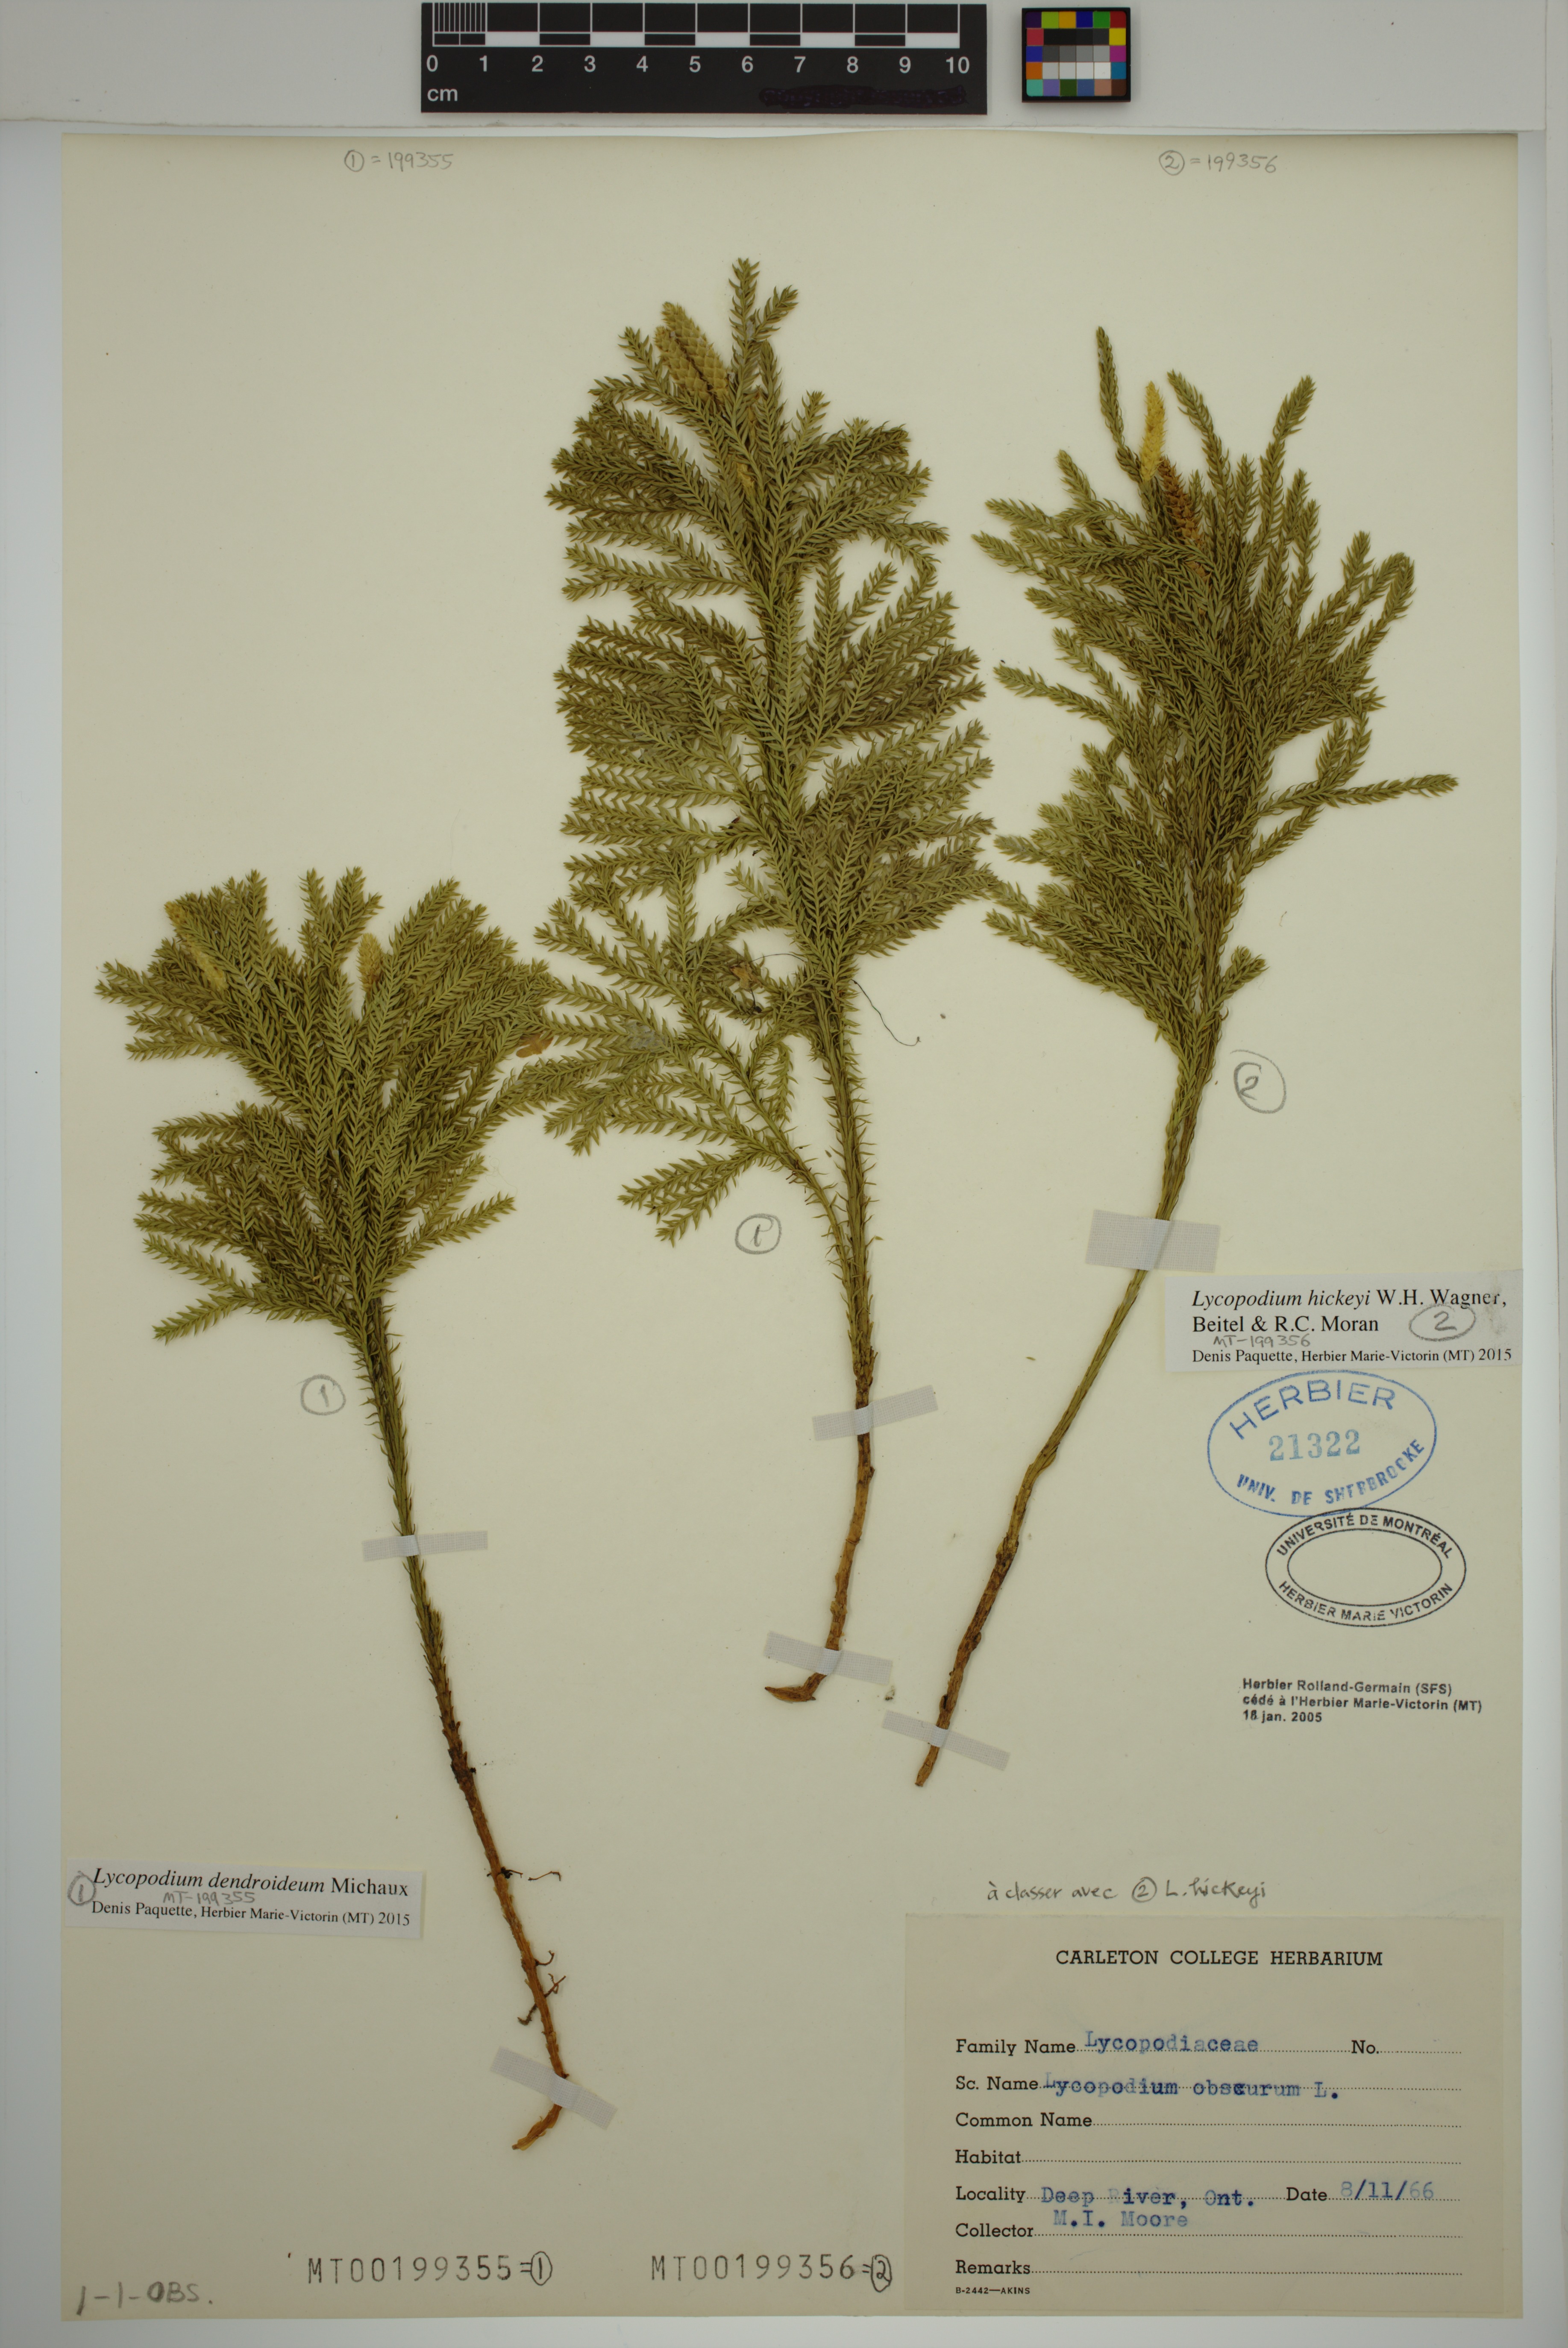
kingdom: Plantae
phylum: Tracheophyta
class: Lycopodiopsida
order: Lycopodiales
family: Lycopodiaceae
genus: Dendrolycopodium
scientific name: Dendrolycopodium dendroideum
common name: Northern tree-clubmoss
